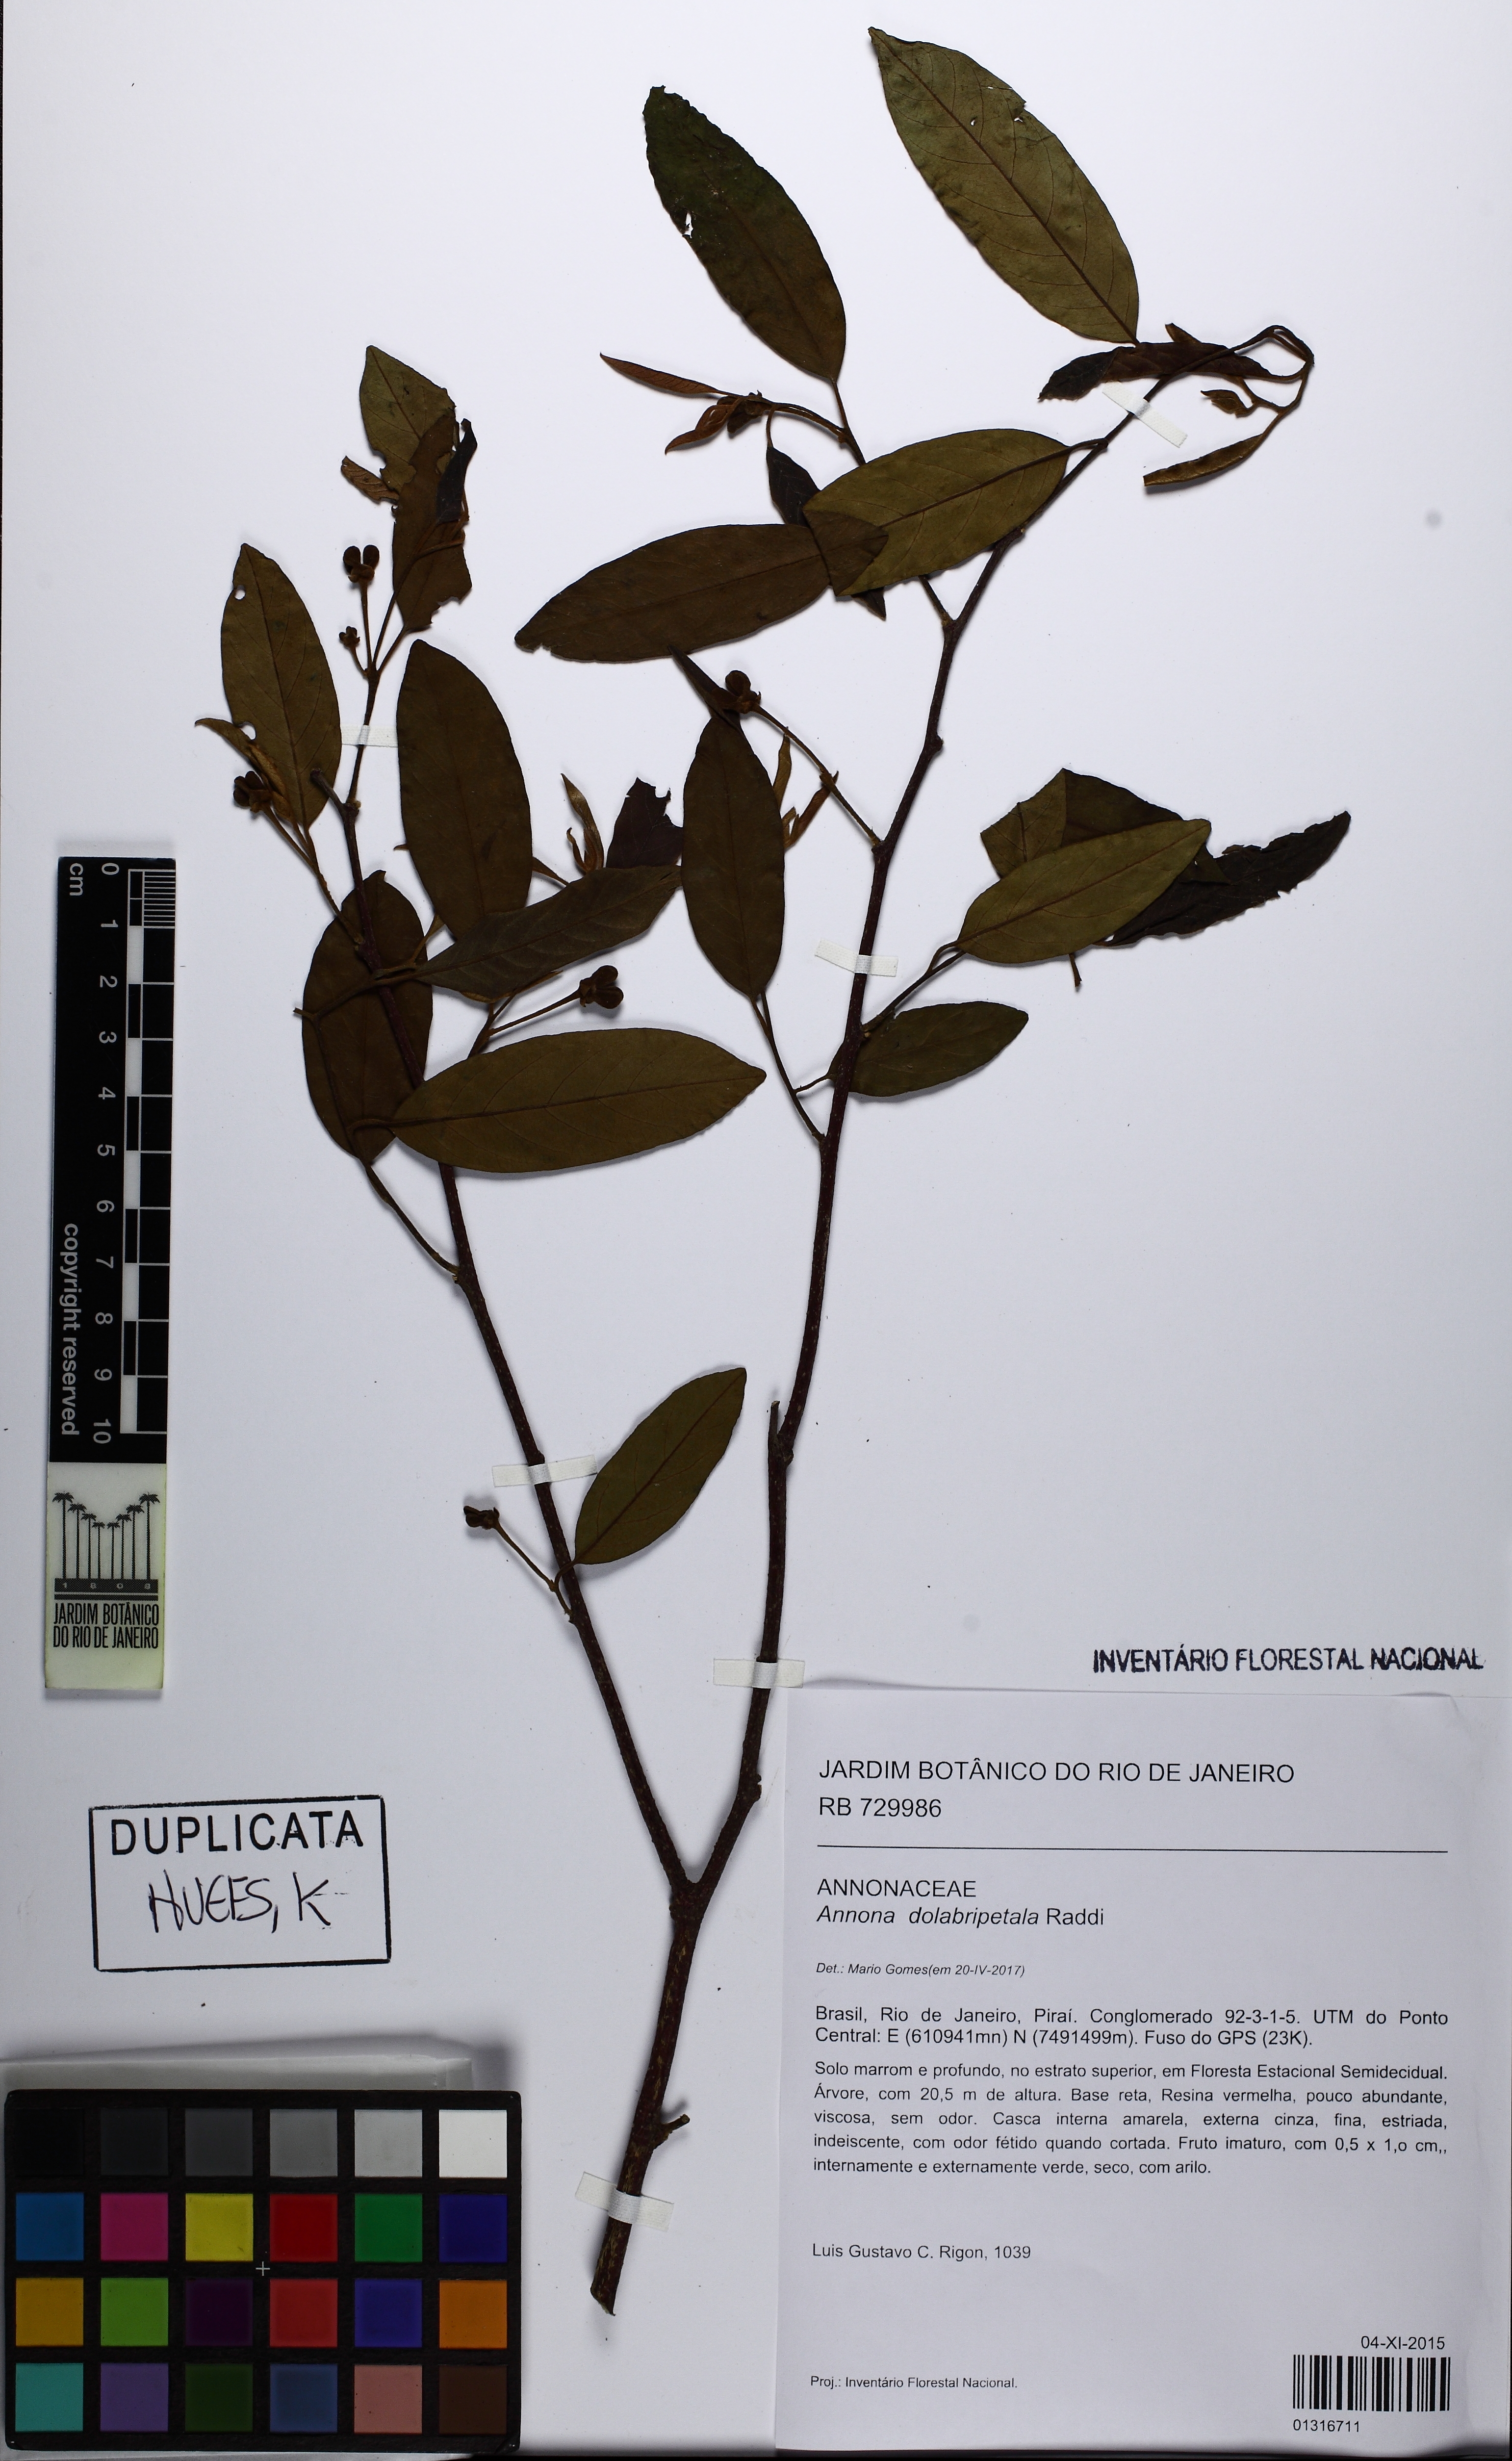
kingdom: Plantae
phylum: Tracheophyta
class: Magnoliopsida
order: Magnoliales
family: Annonaceae
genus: Annona
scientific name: Annona dolabripetala
